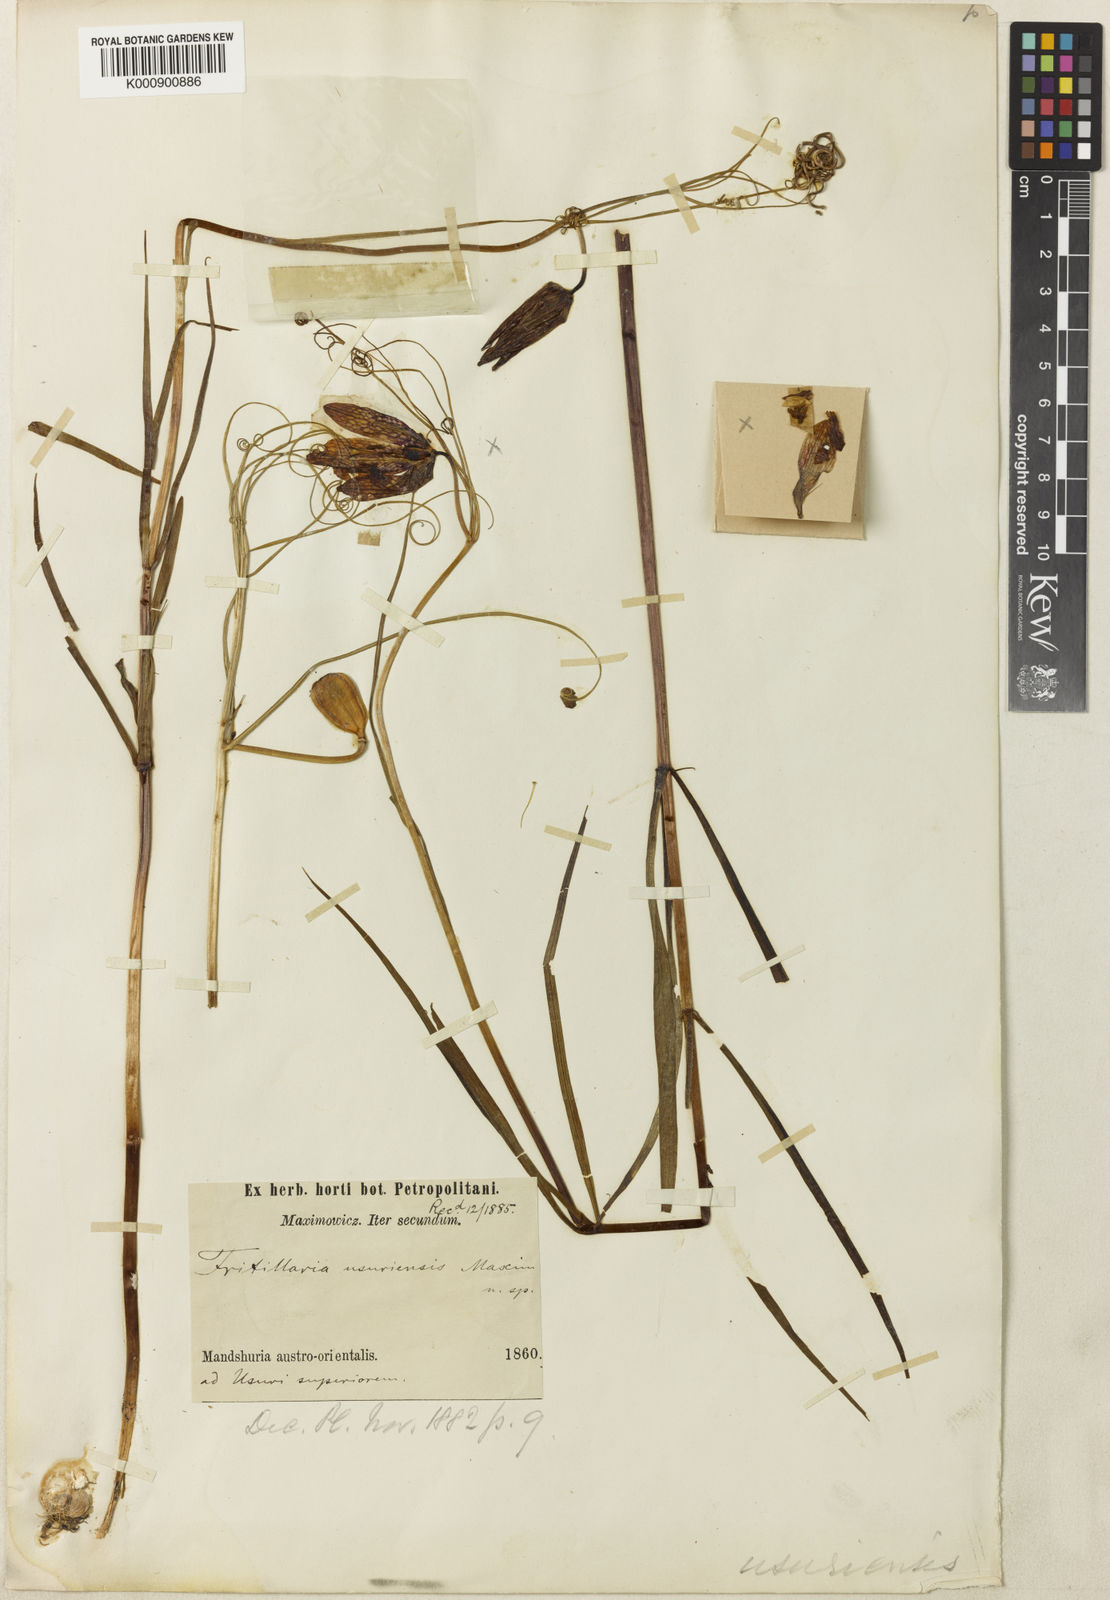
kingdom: Plantae
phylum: Tracheophyta
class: Liliopsida
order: Liliales
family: Liliaceae
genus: Fritillaria
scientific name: Fritillaria usuriensis
